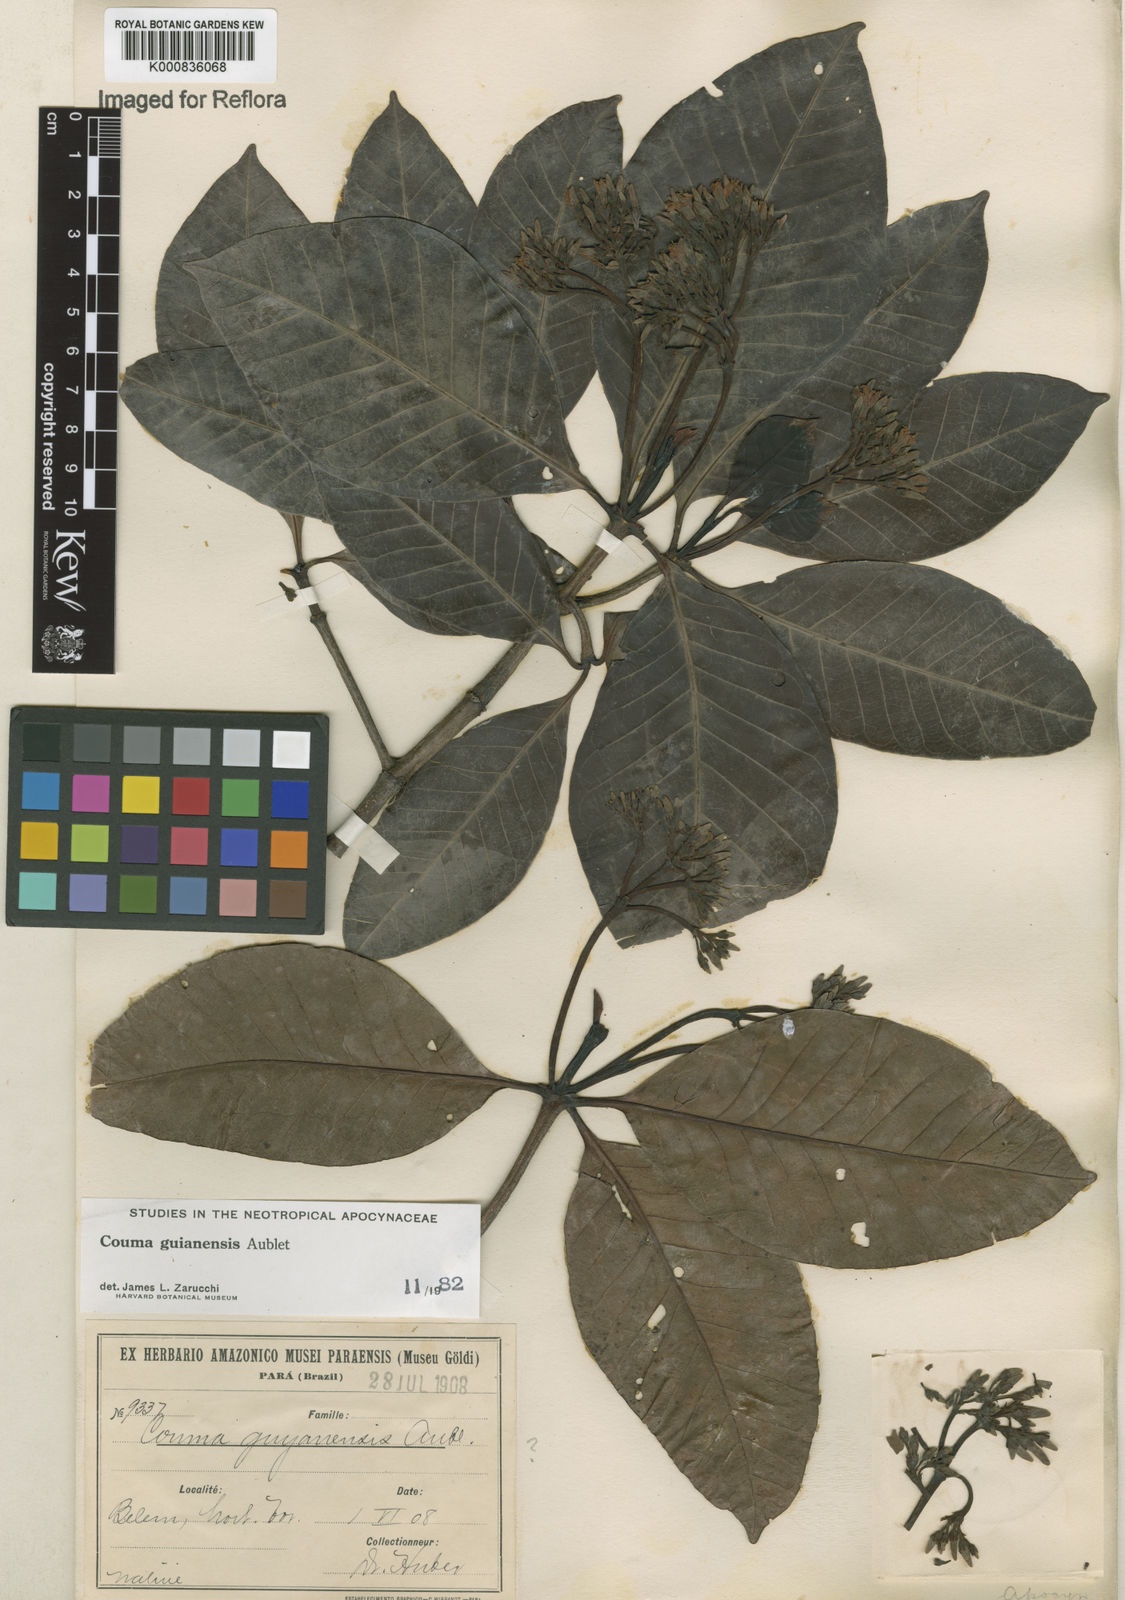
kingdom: Plantae
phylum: Tracheophyta
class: Magnoliopsida
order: Gentianales
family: Apocynaceae
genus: Couma
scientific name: Couma guianensis
